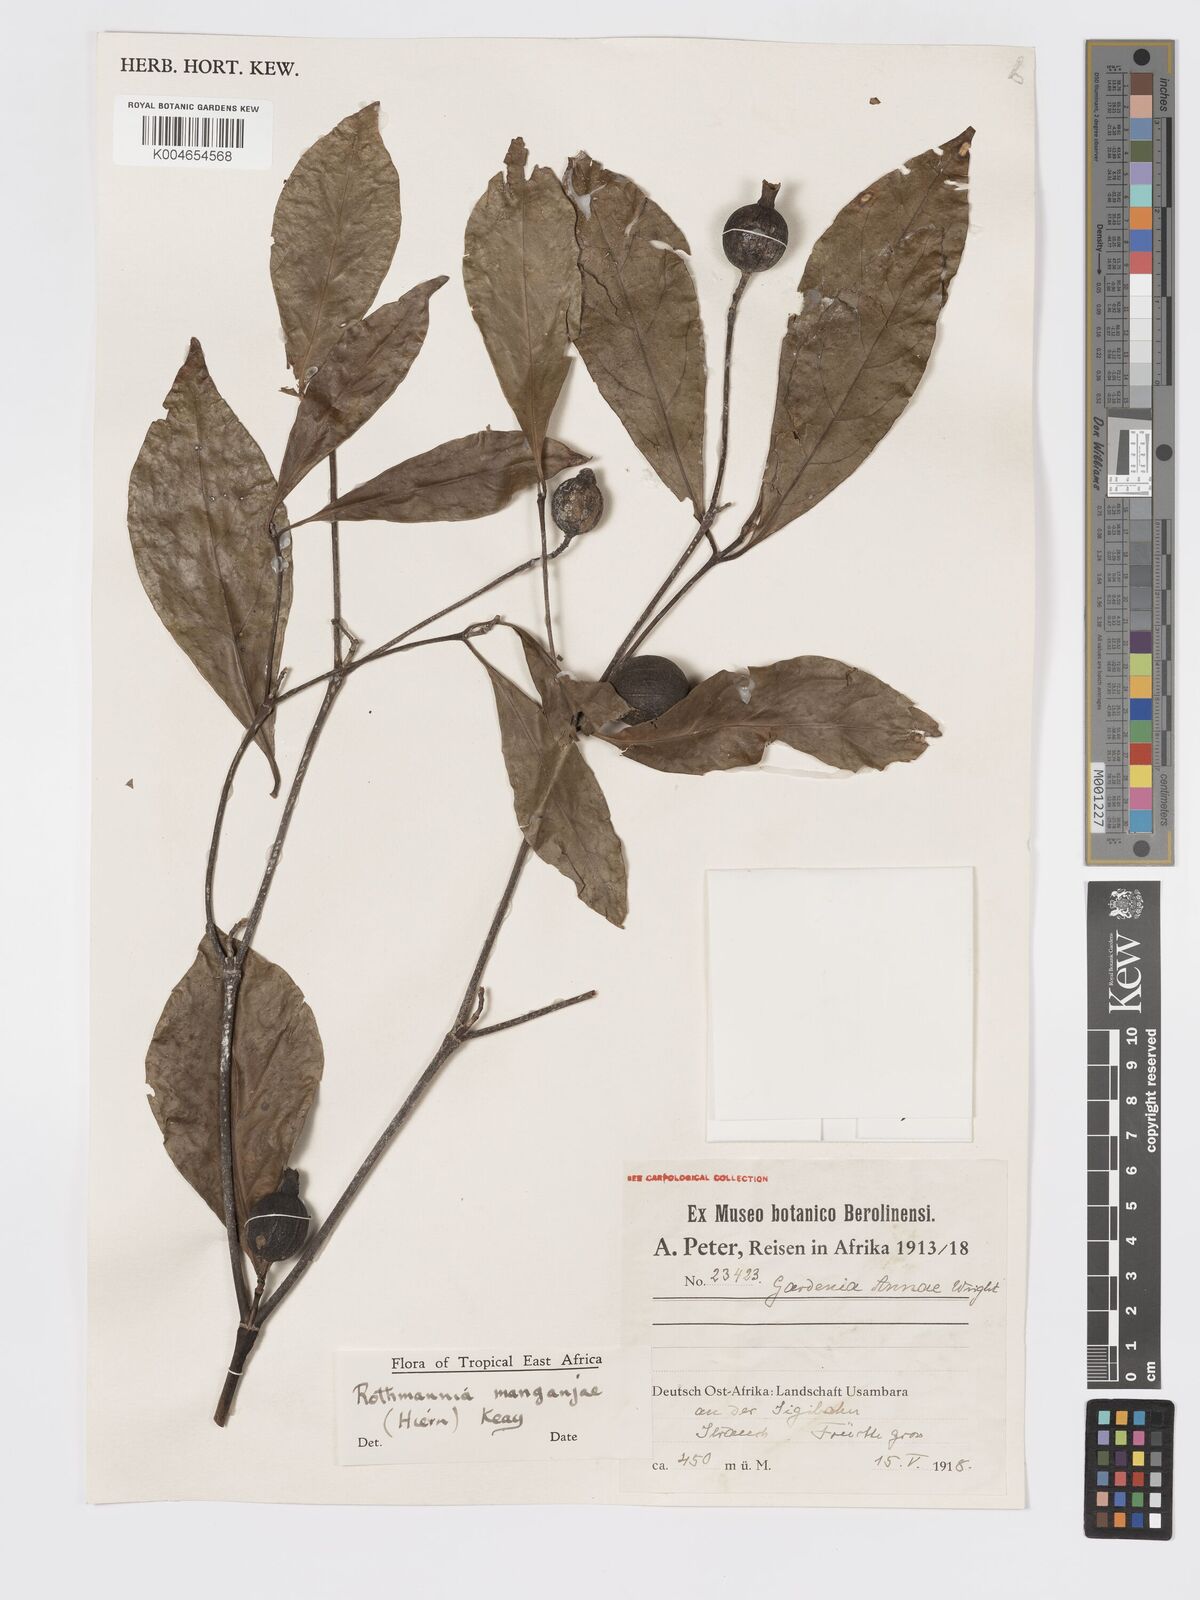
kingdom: Plantae
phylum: Tracheophyta
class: Magnoliopsida
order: Gentianales
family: Rubiaceae
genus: Rothmannia
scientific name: Rothmannia
